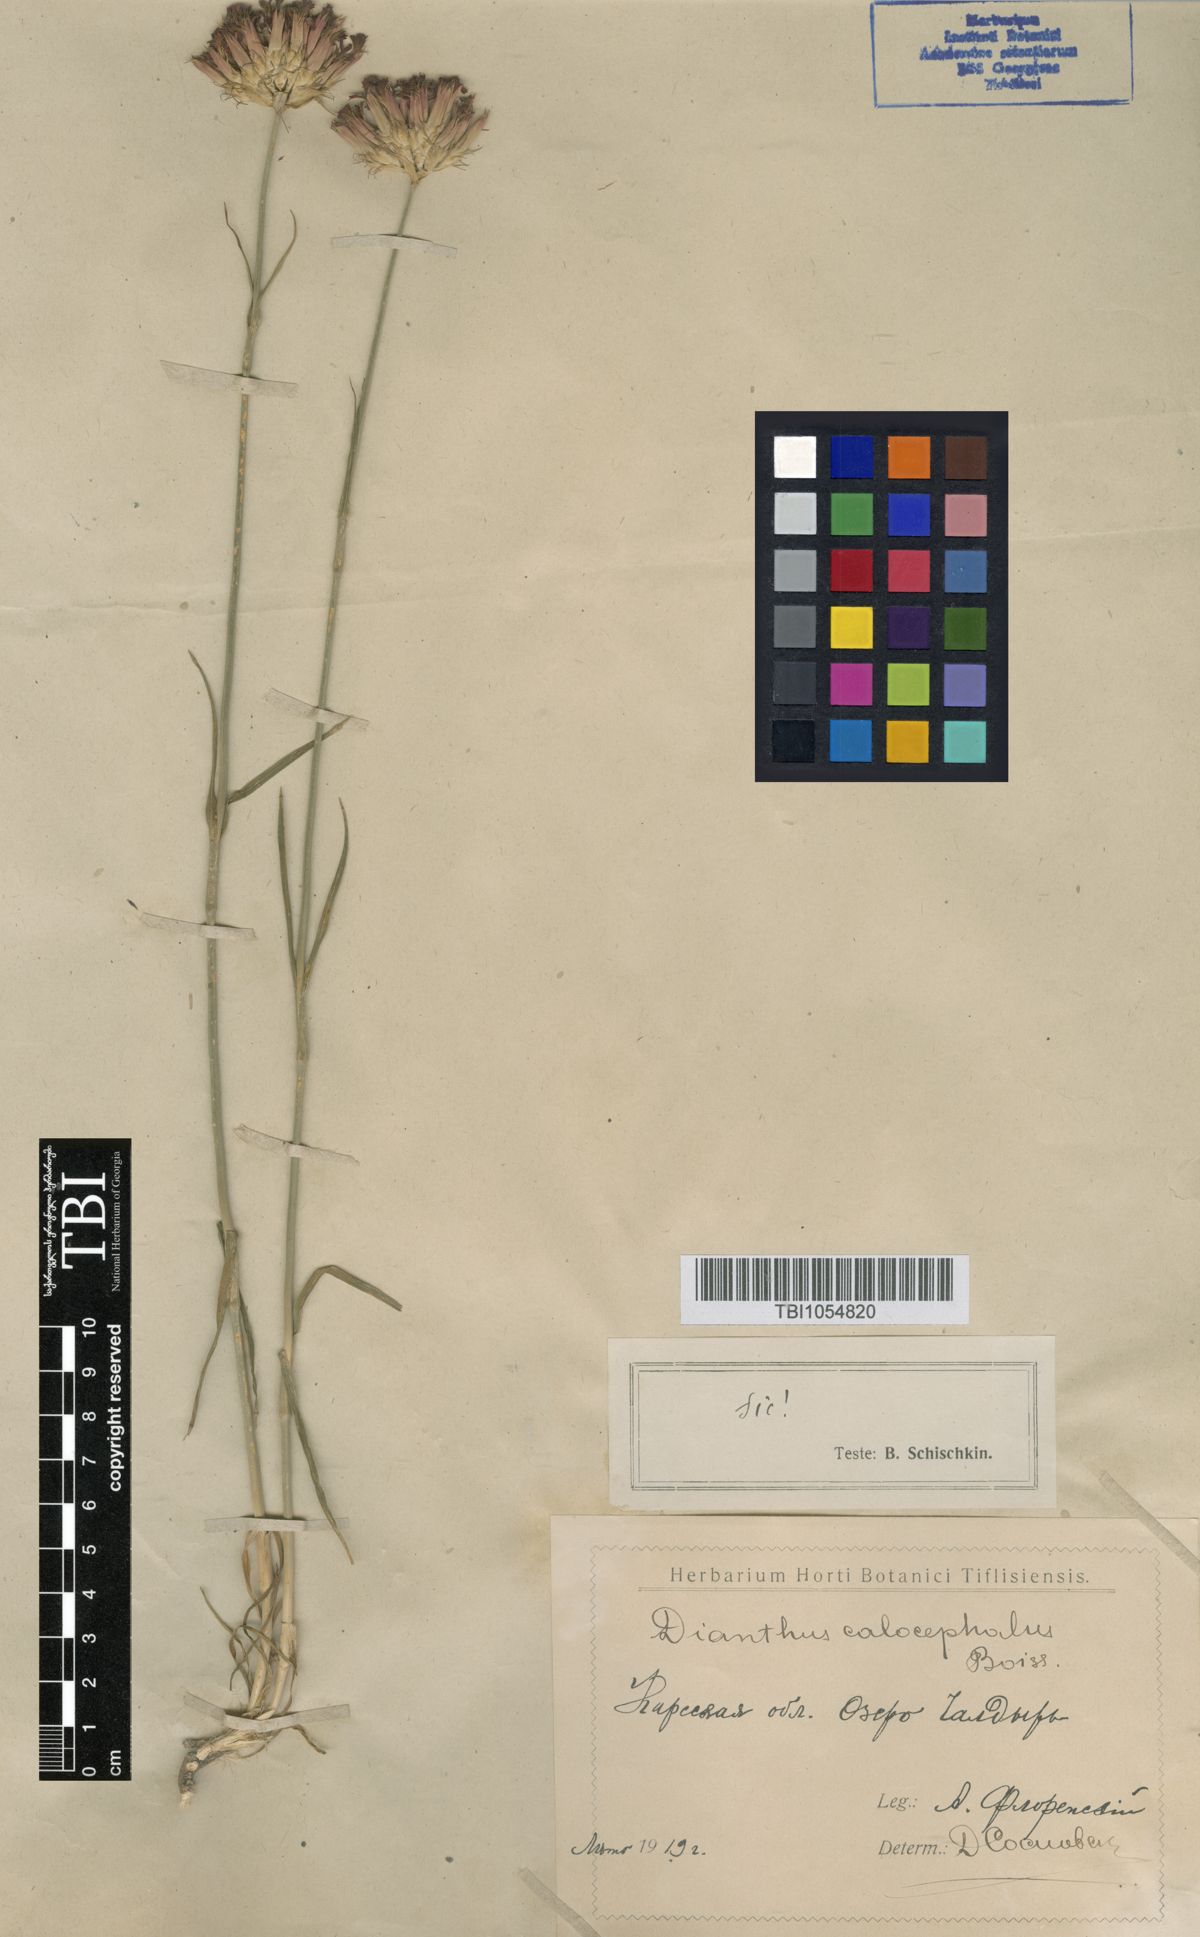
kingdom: Plantae
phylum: Tracheophyta
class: Magnoliopsida
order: Caryophyllales
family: Caryophyllaceae
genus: Dianthus
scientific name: Dianthus cruentus
